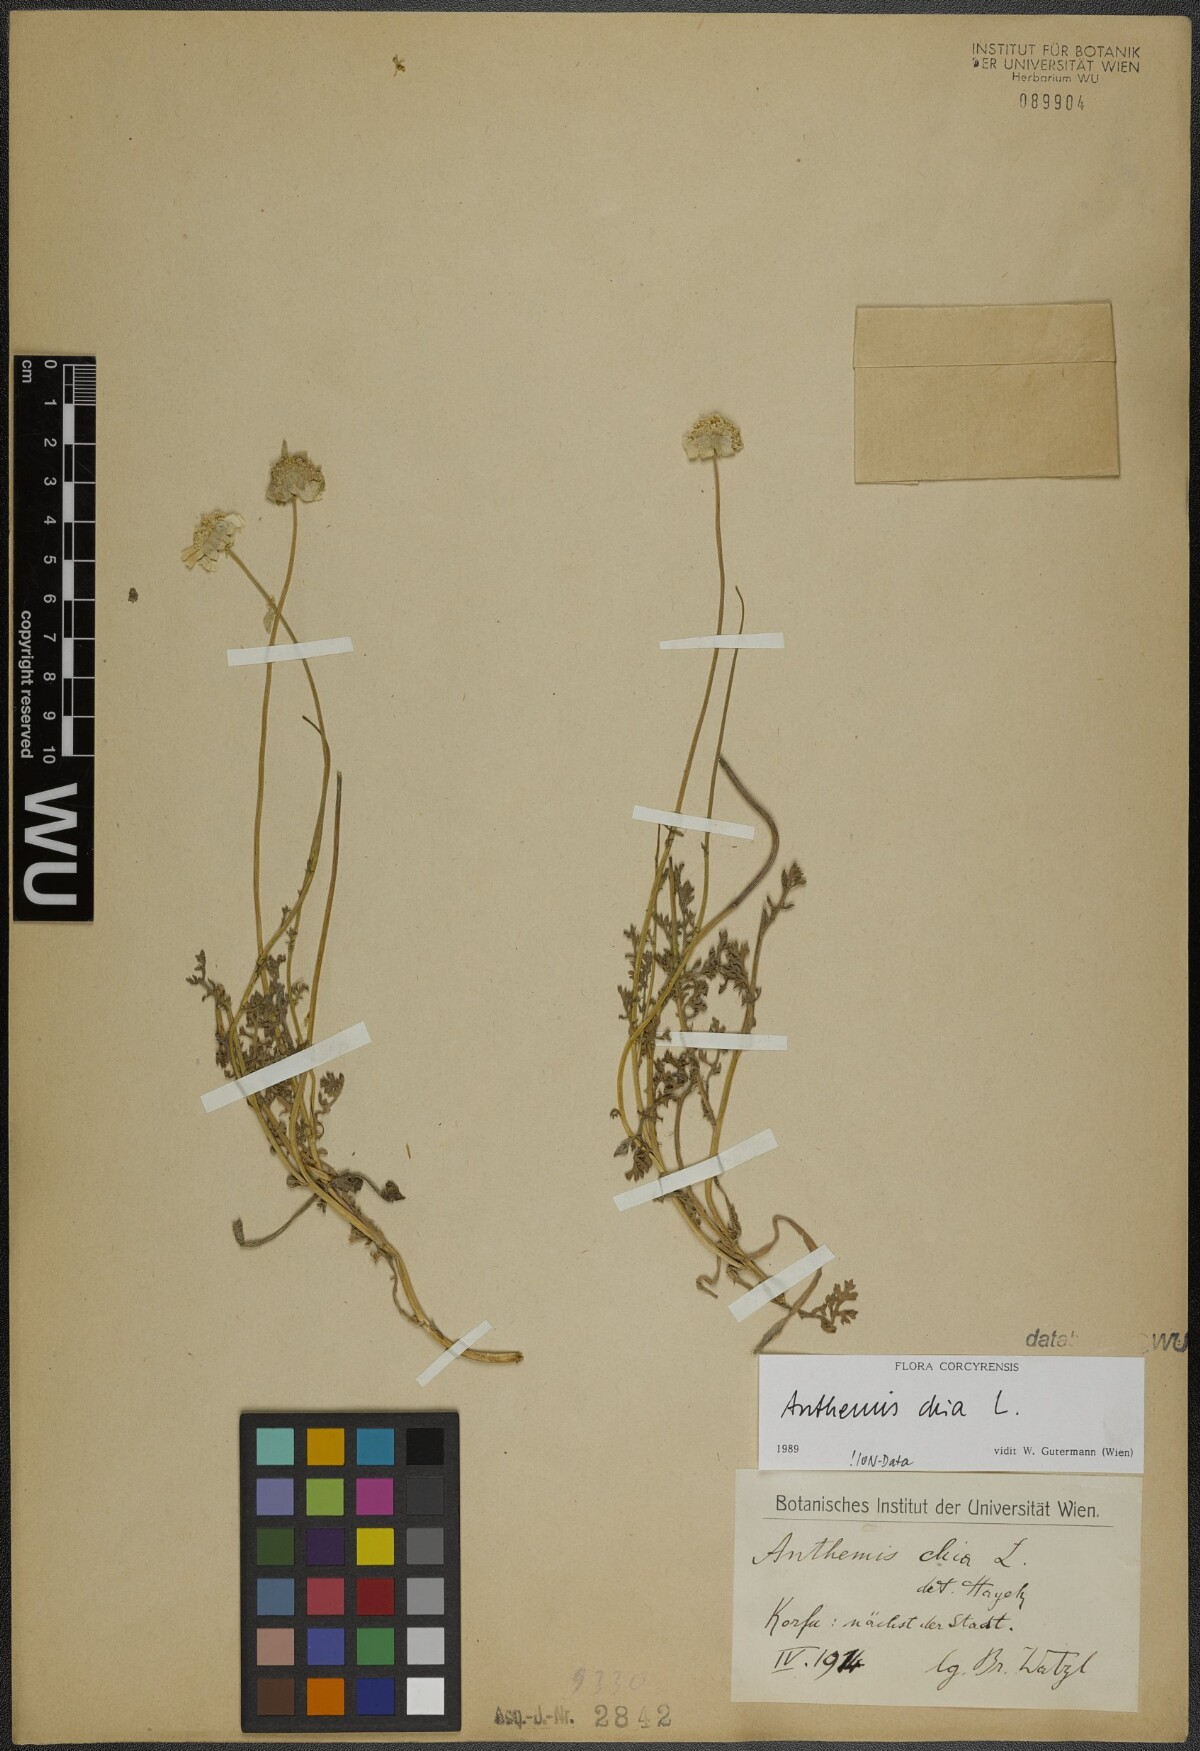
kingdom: Plantae
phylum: Tracheophyta
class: Magnoliopsida
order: Asterales
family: Asteraceae
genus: Anthemis
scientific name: Anthemis chia
